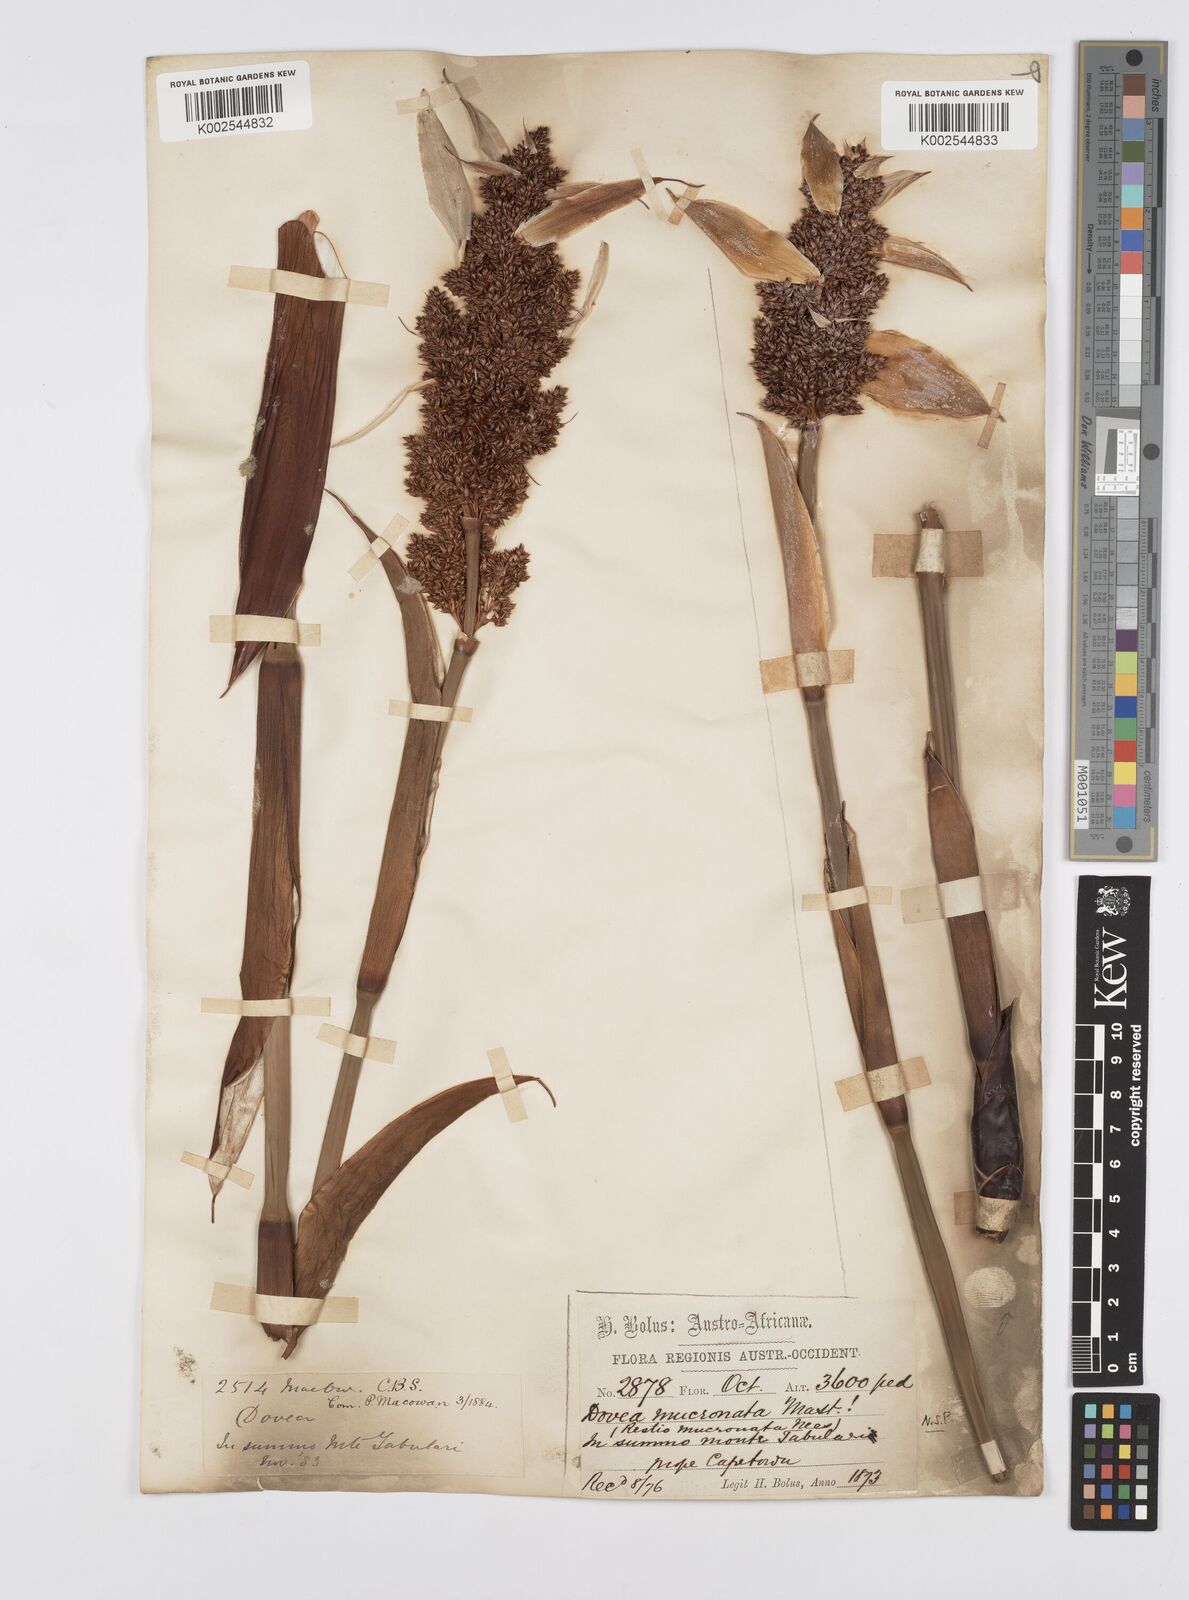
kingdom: Plantae
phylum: Tracheophyta
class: Liliopsida
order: Poales
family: Restionaceae
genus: Elegia
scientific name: Elegia mucronata
